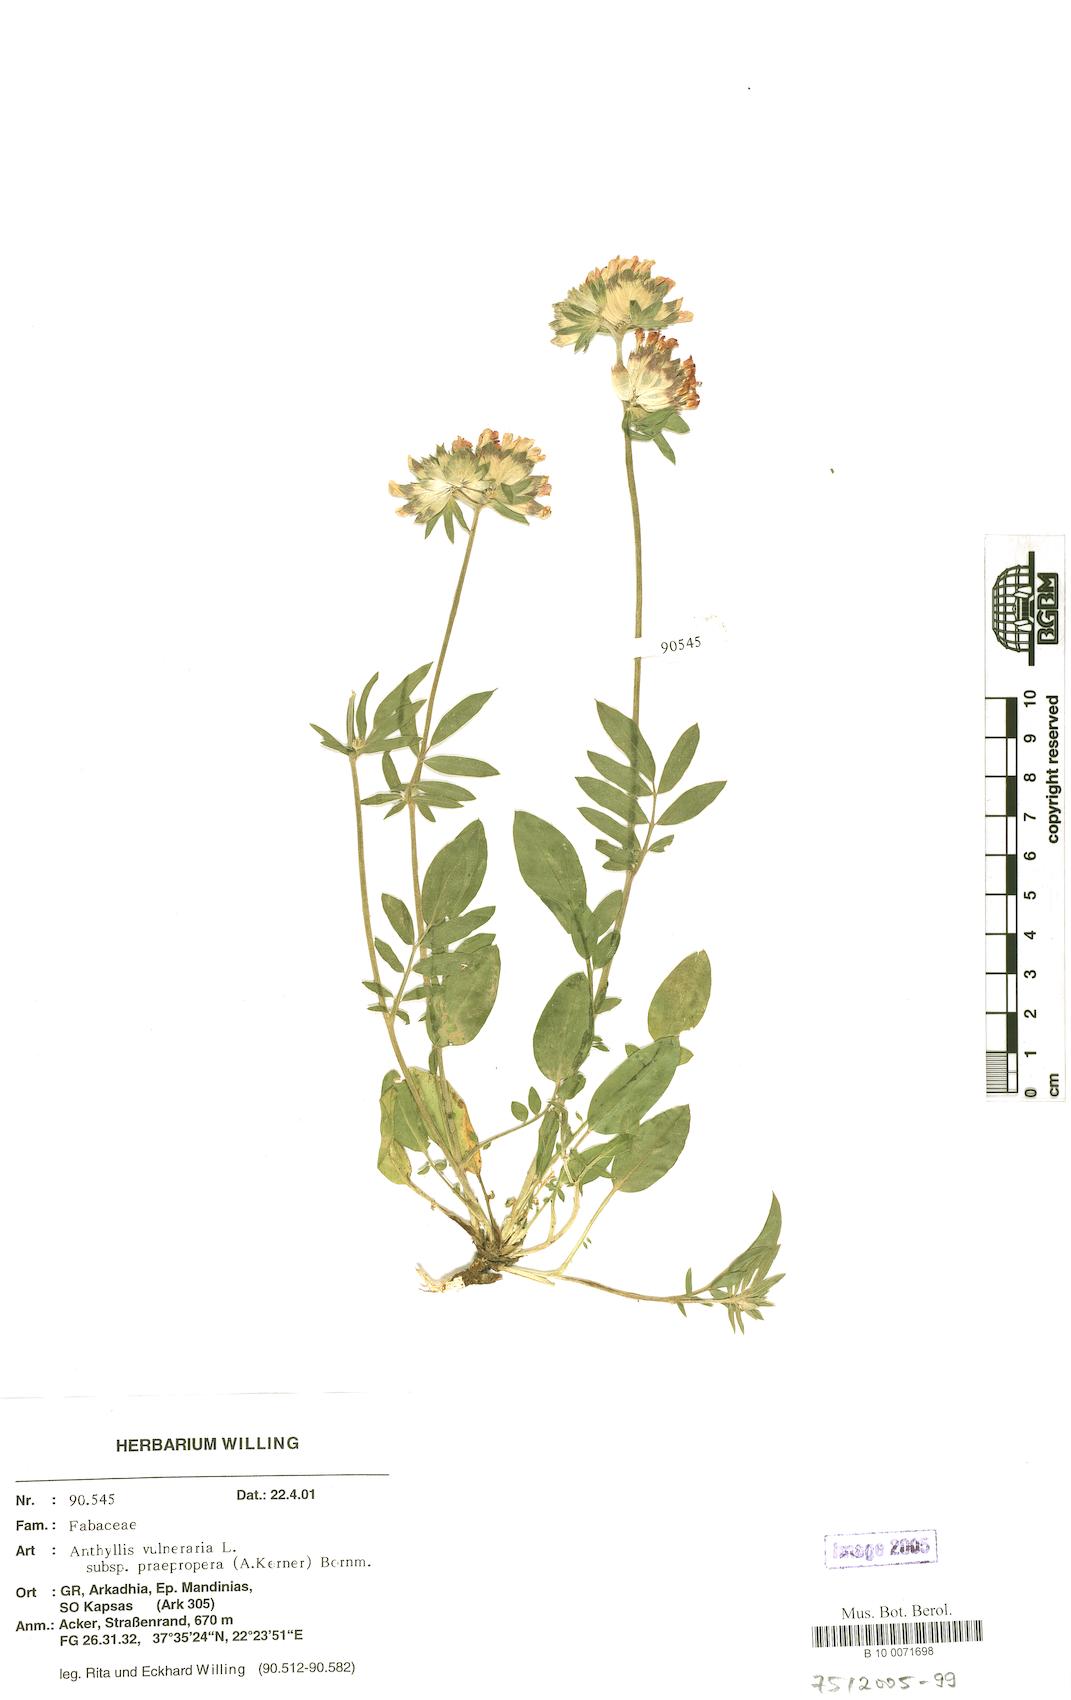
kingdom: Plantae
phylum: Tracheophyta
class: Magnoliopsida
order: Fabales
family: Fabaceae
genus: Anthyllis
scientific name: Anthyllis vulneraria
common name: Kidney vetch
